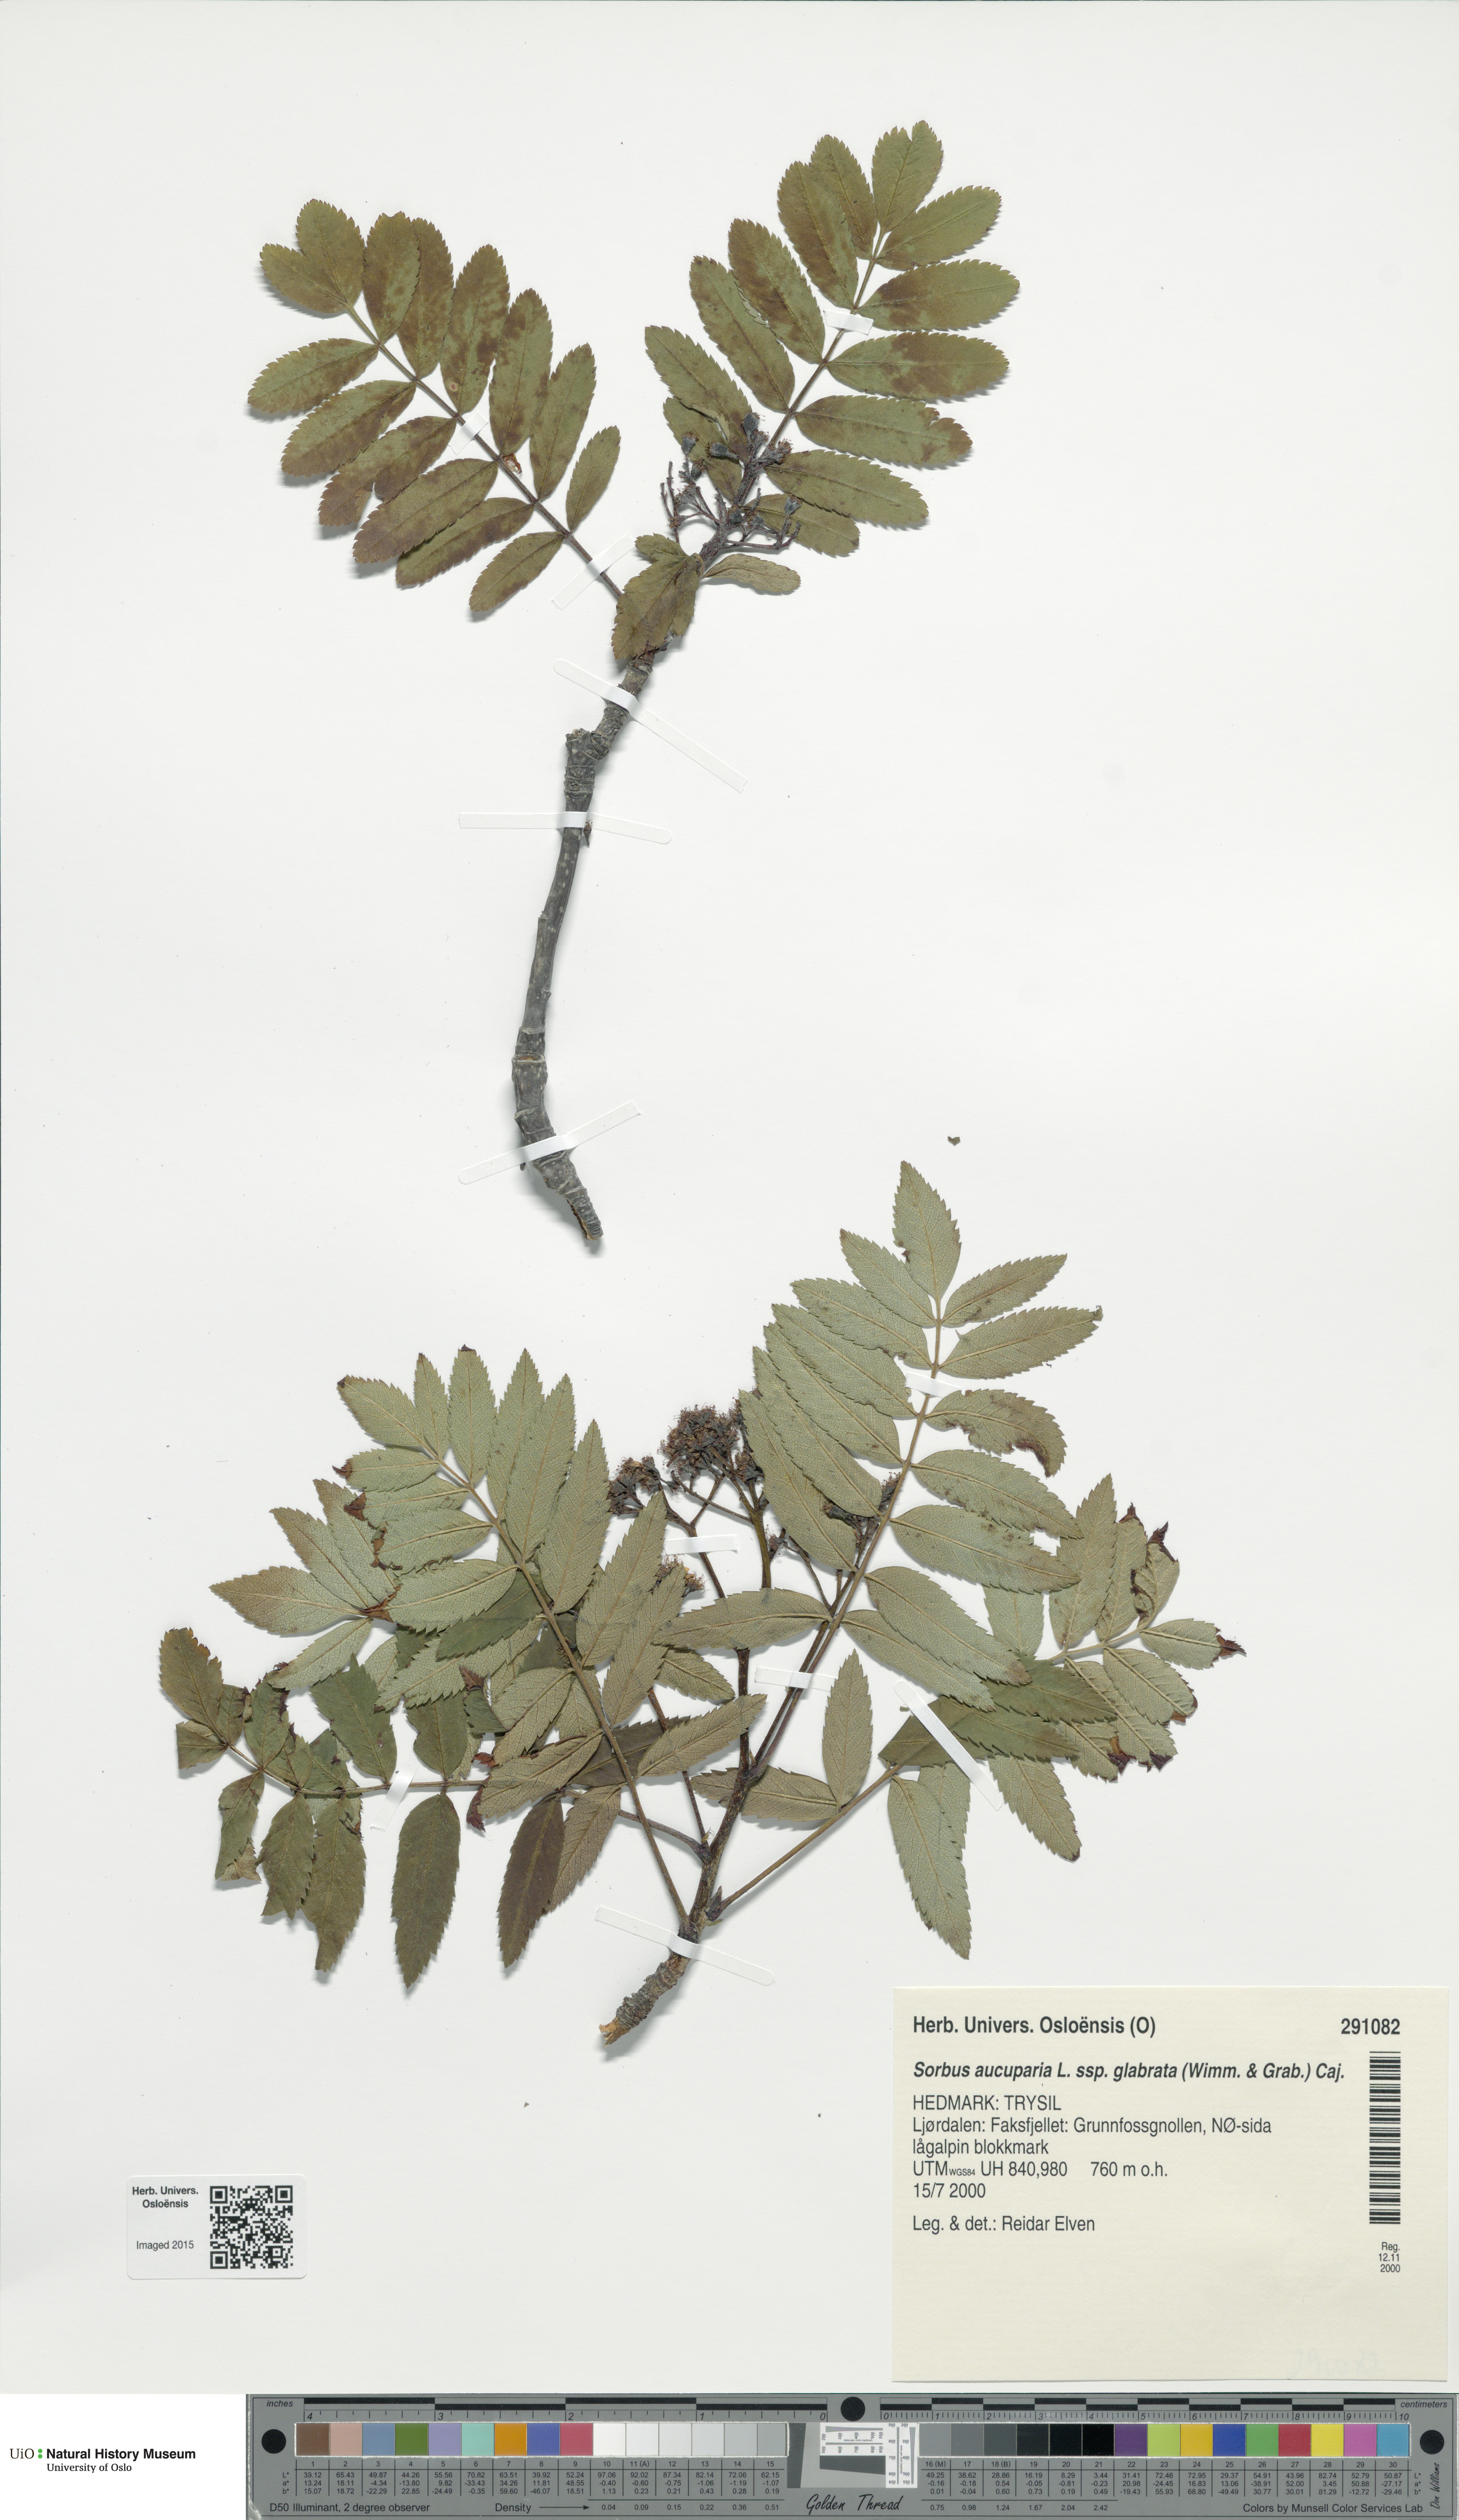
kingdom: Plantae
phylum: Tracheophyta
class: Magnoliopsida
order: Rosales
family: Rosaceae
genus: Sorbus
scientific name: Sorbus aucuparia
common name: Rowan
